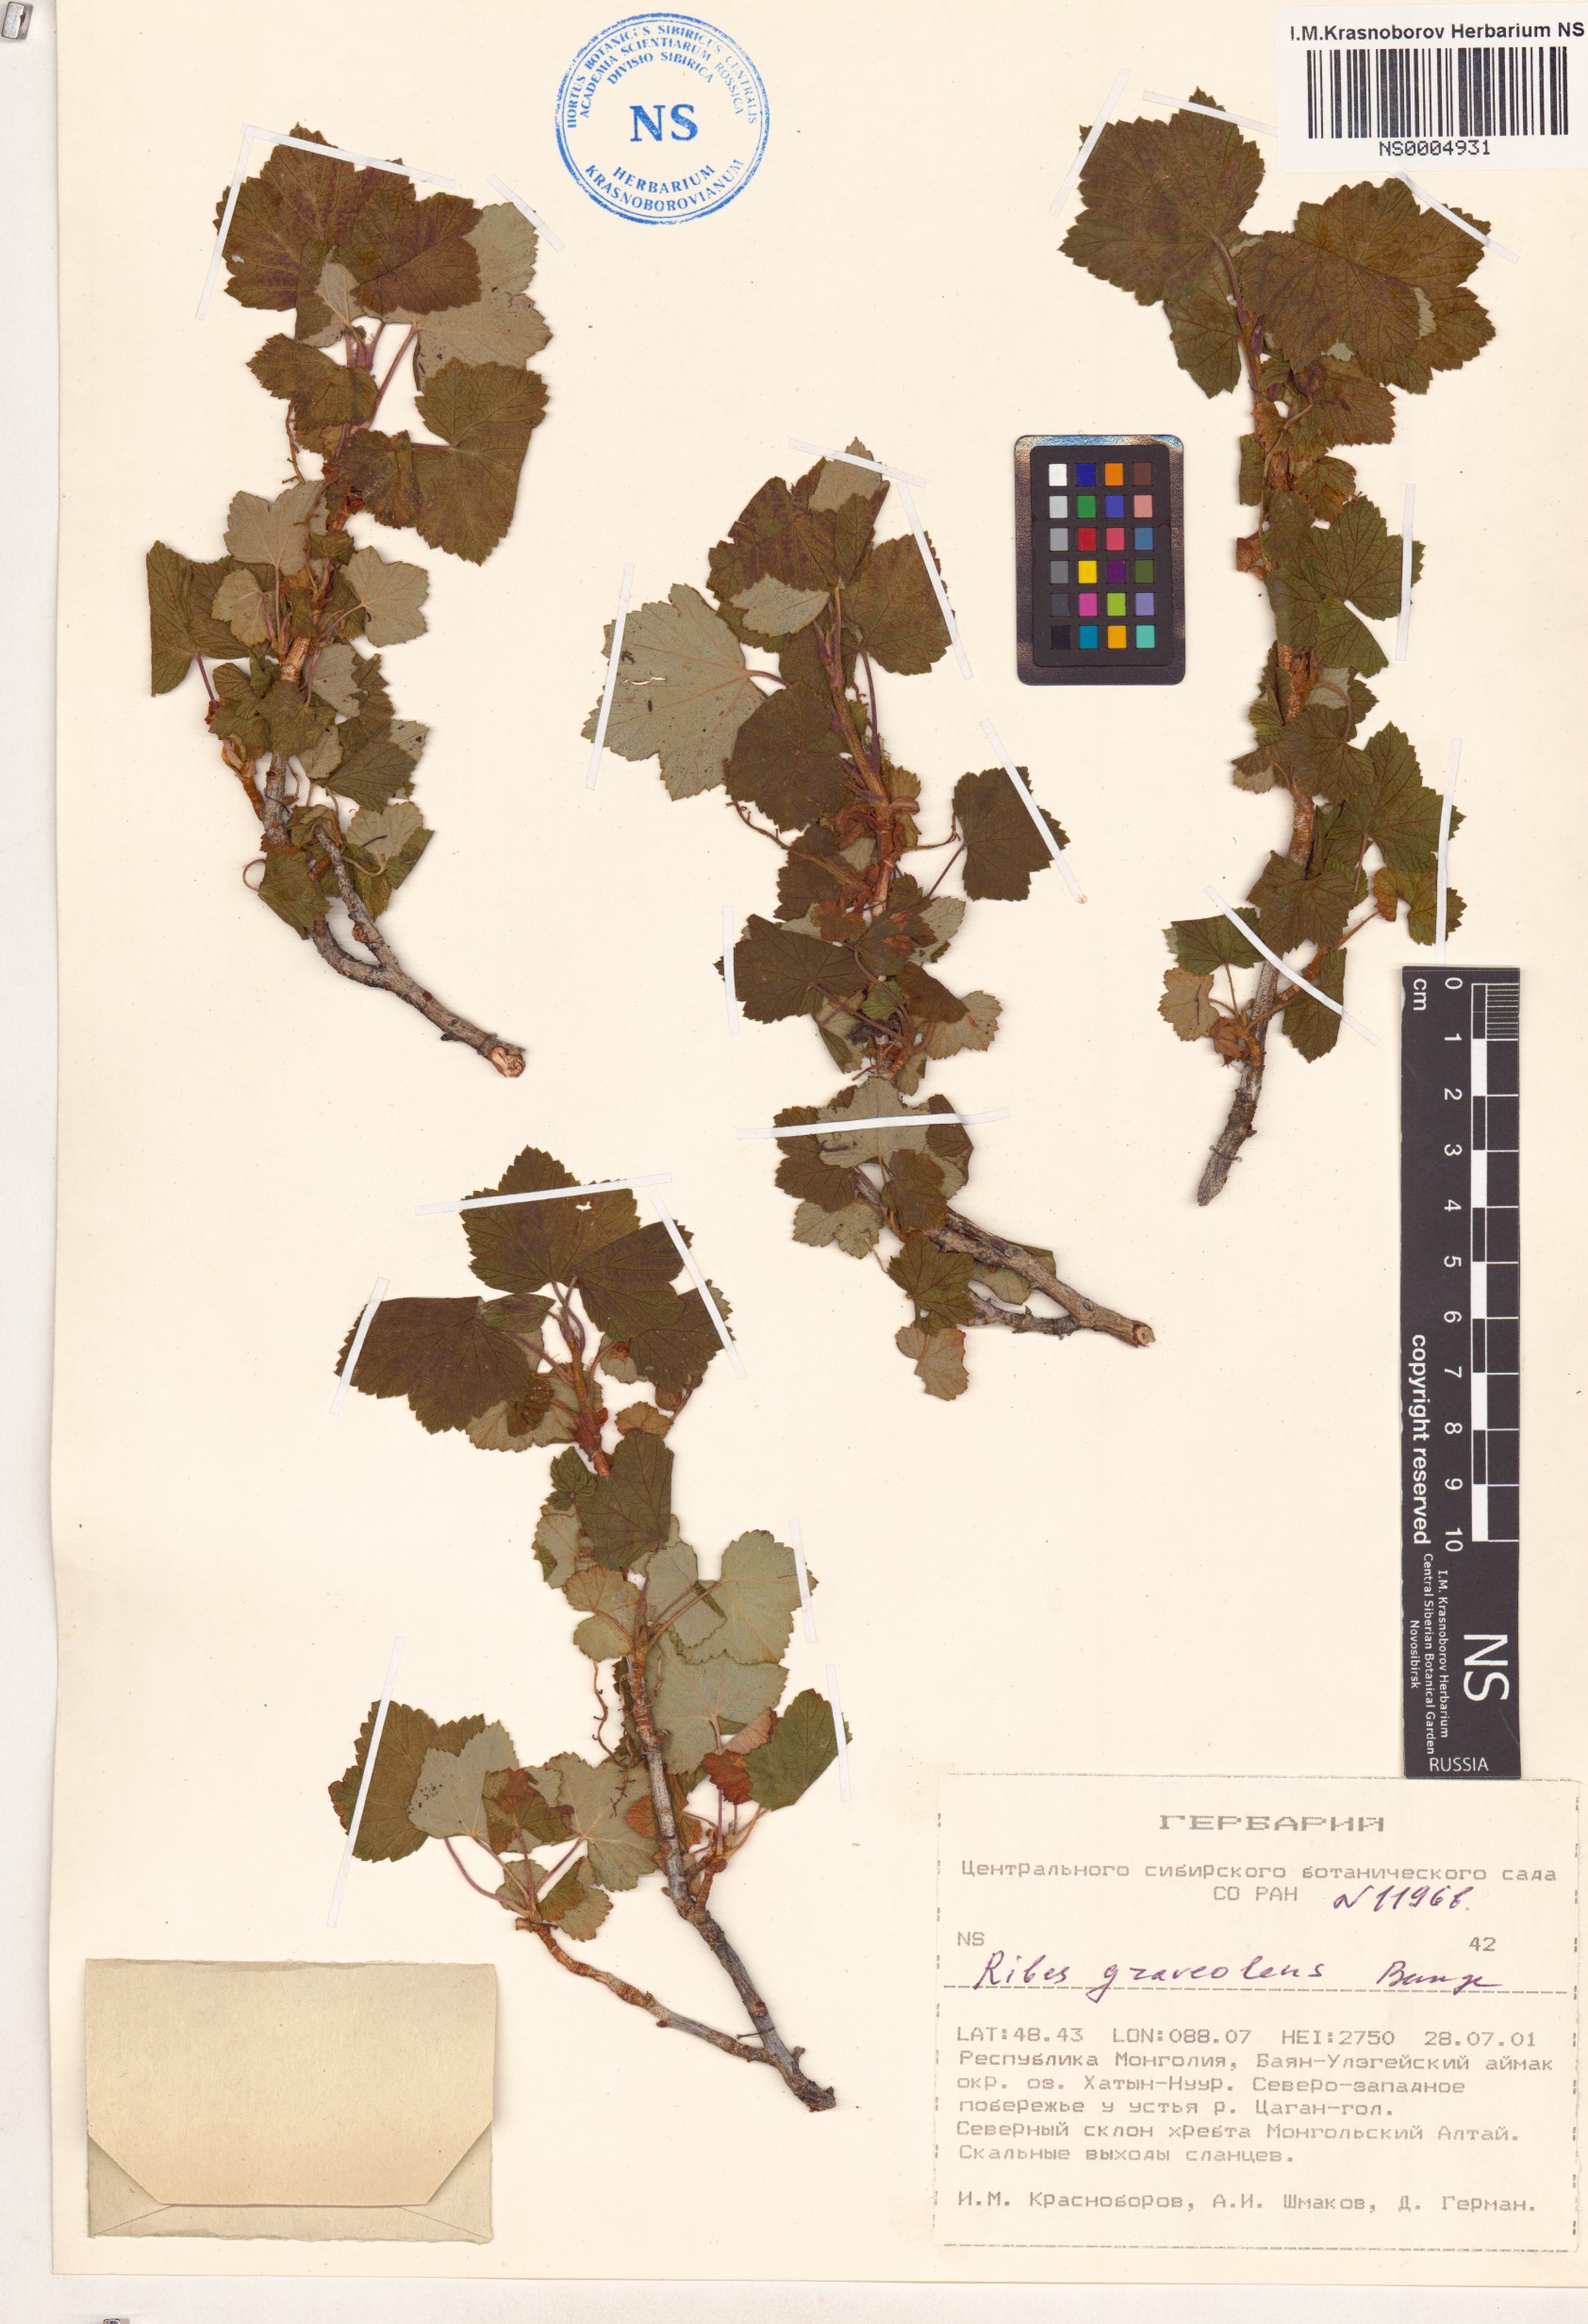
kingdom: Plantae
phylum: Tracheophyta
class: Magnoliopsida
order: Saxifragales
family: Grossulariaceae
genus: Ribes
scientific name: Ribes graveolens
